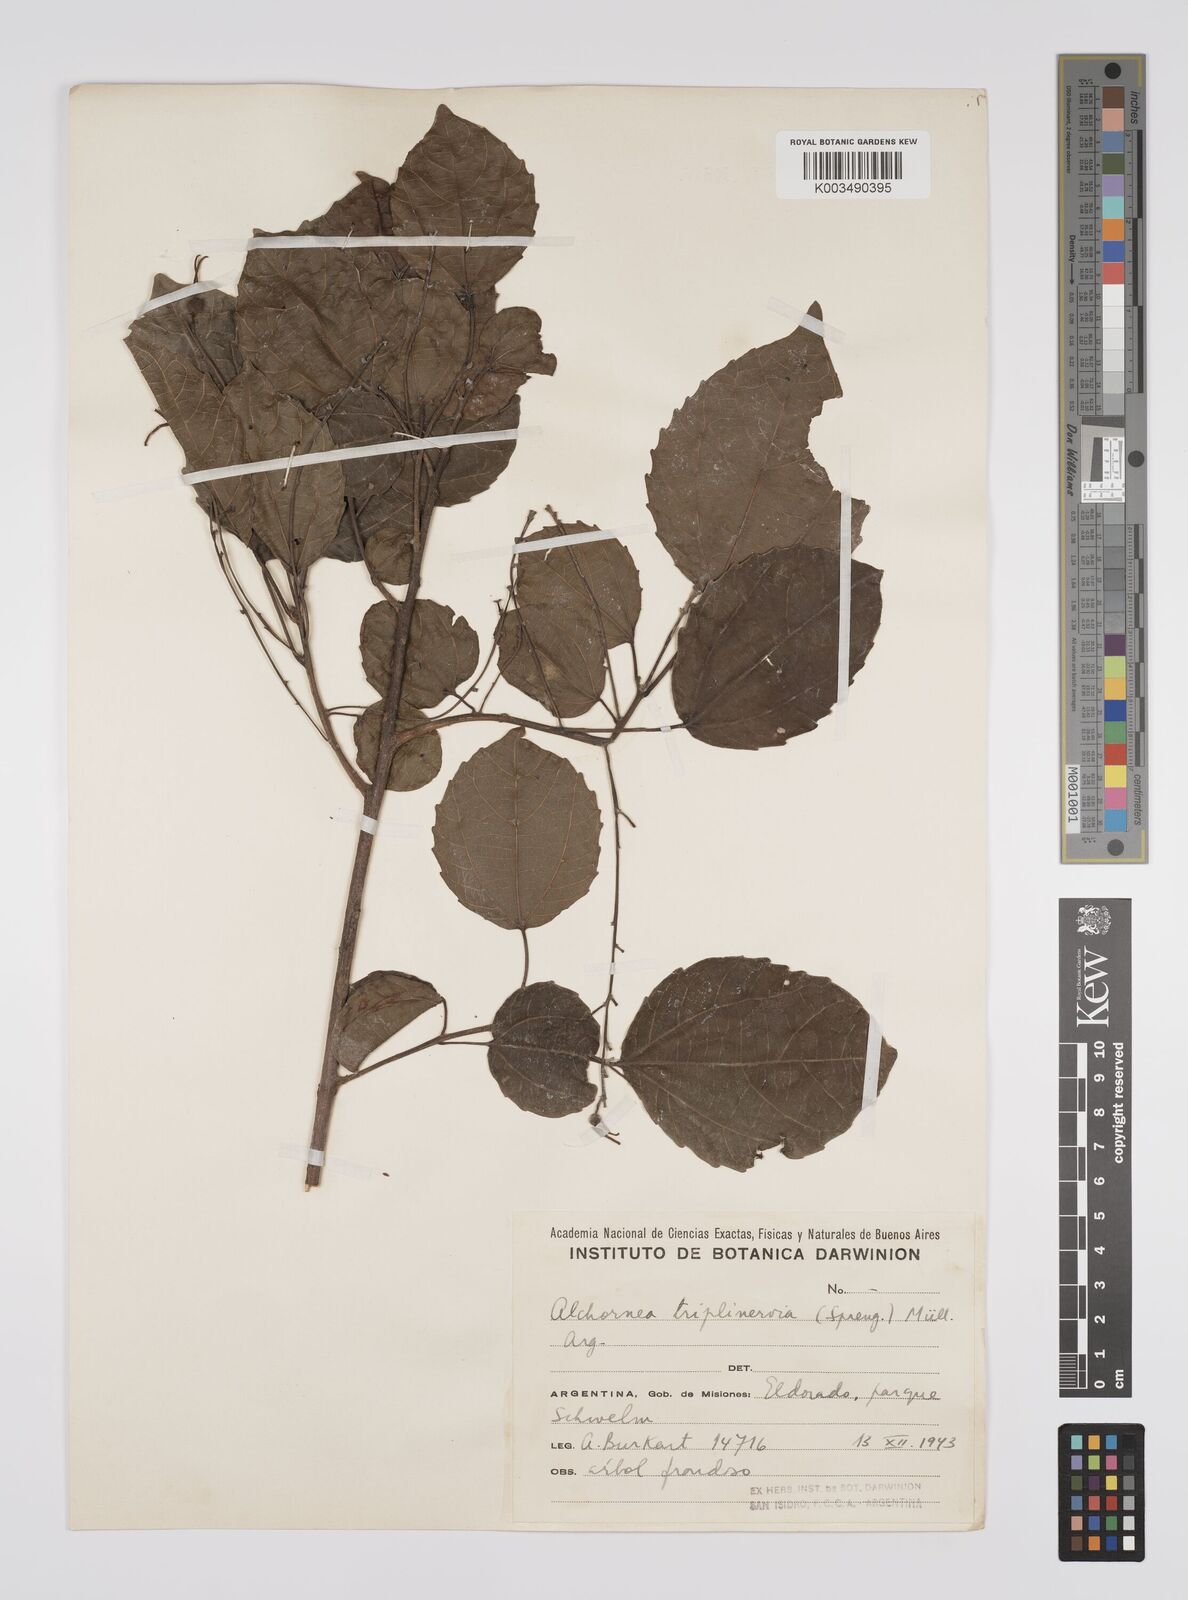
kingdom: Plantae
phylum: Tracheophyta
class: Magnoliopsida
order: Malpighiales
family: Euphorbiaceae
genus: Alchornea
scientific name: Alchornea triplinervia
